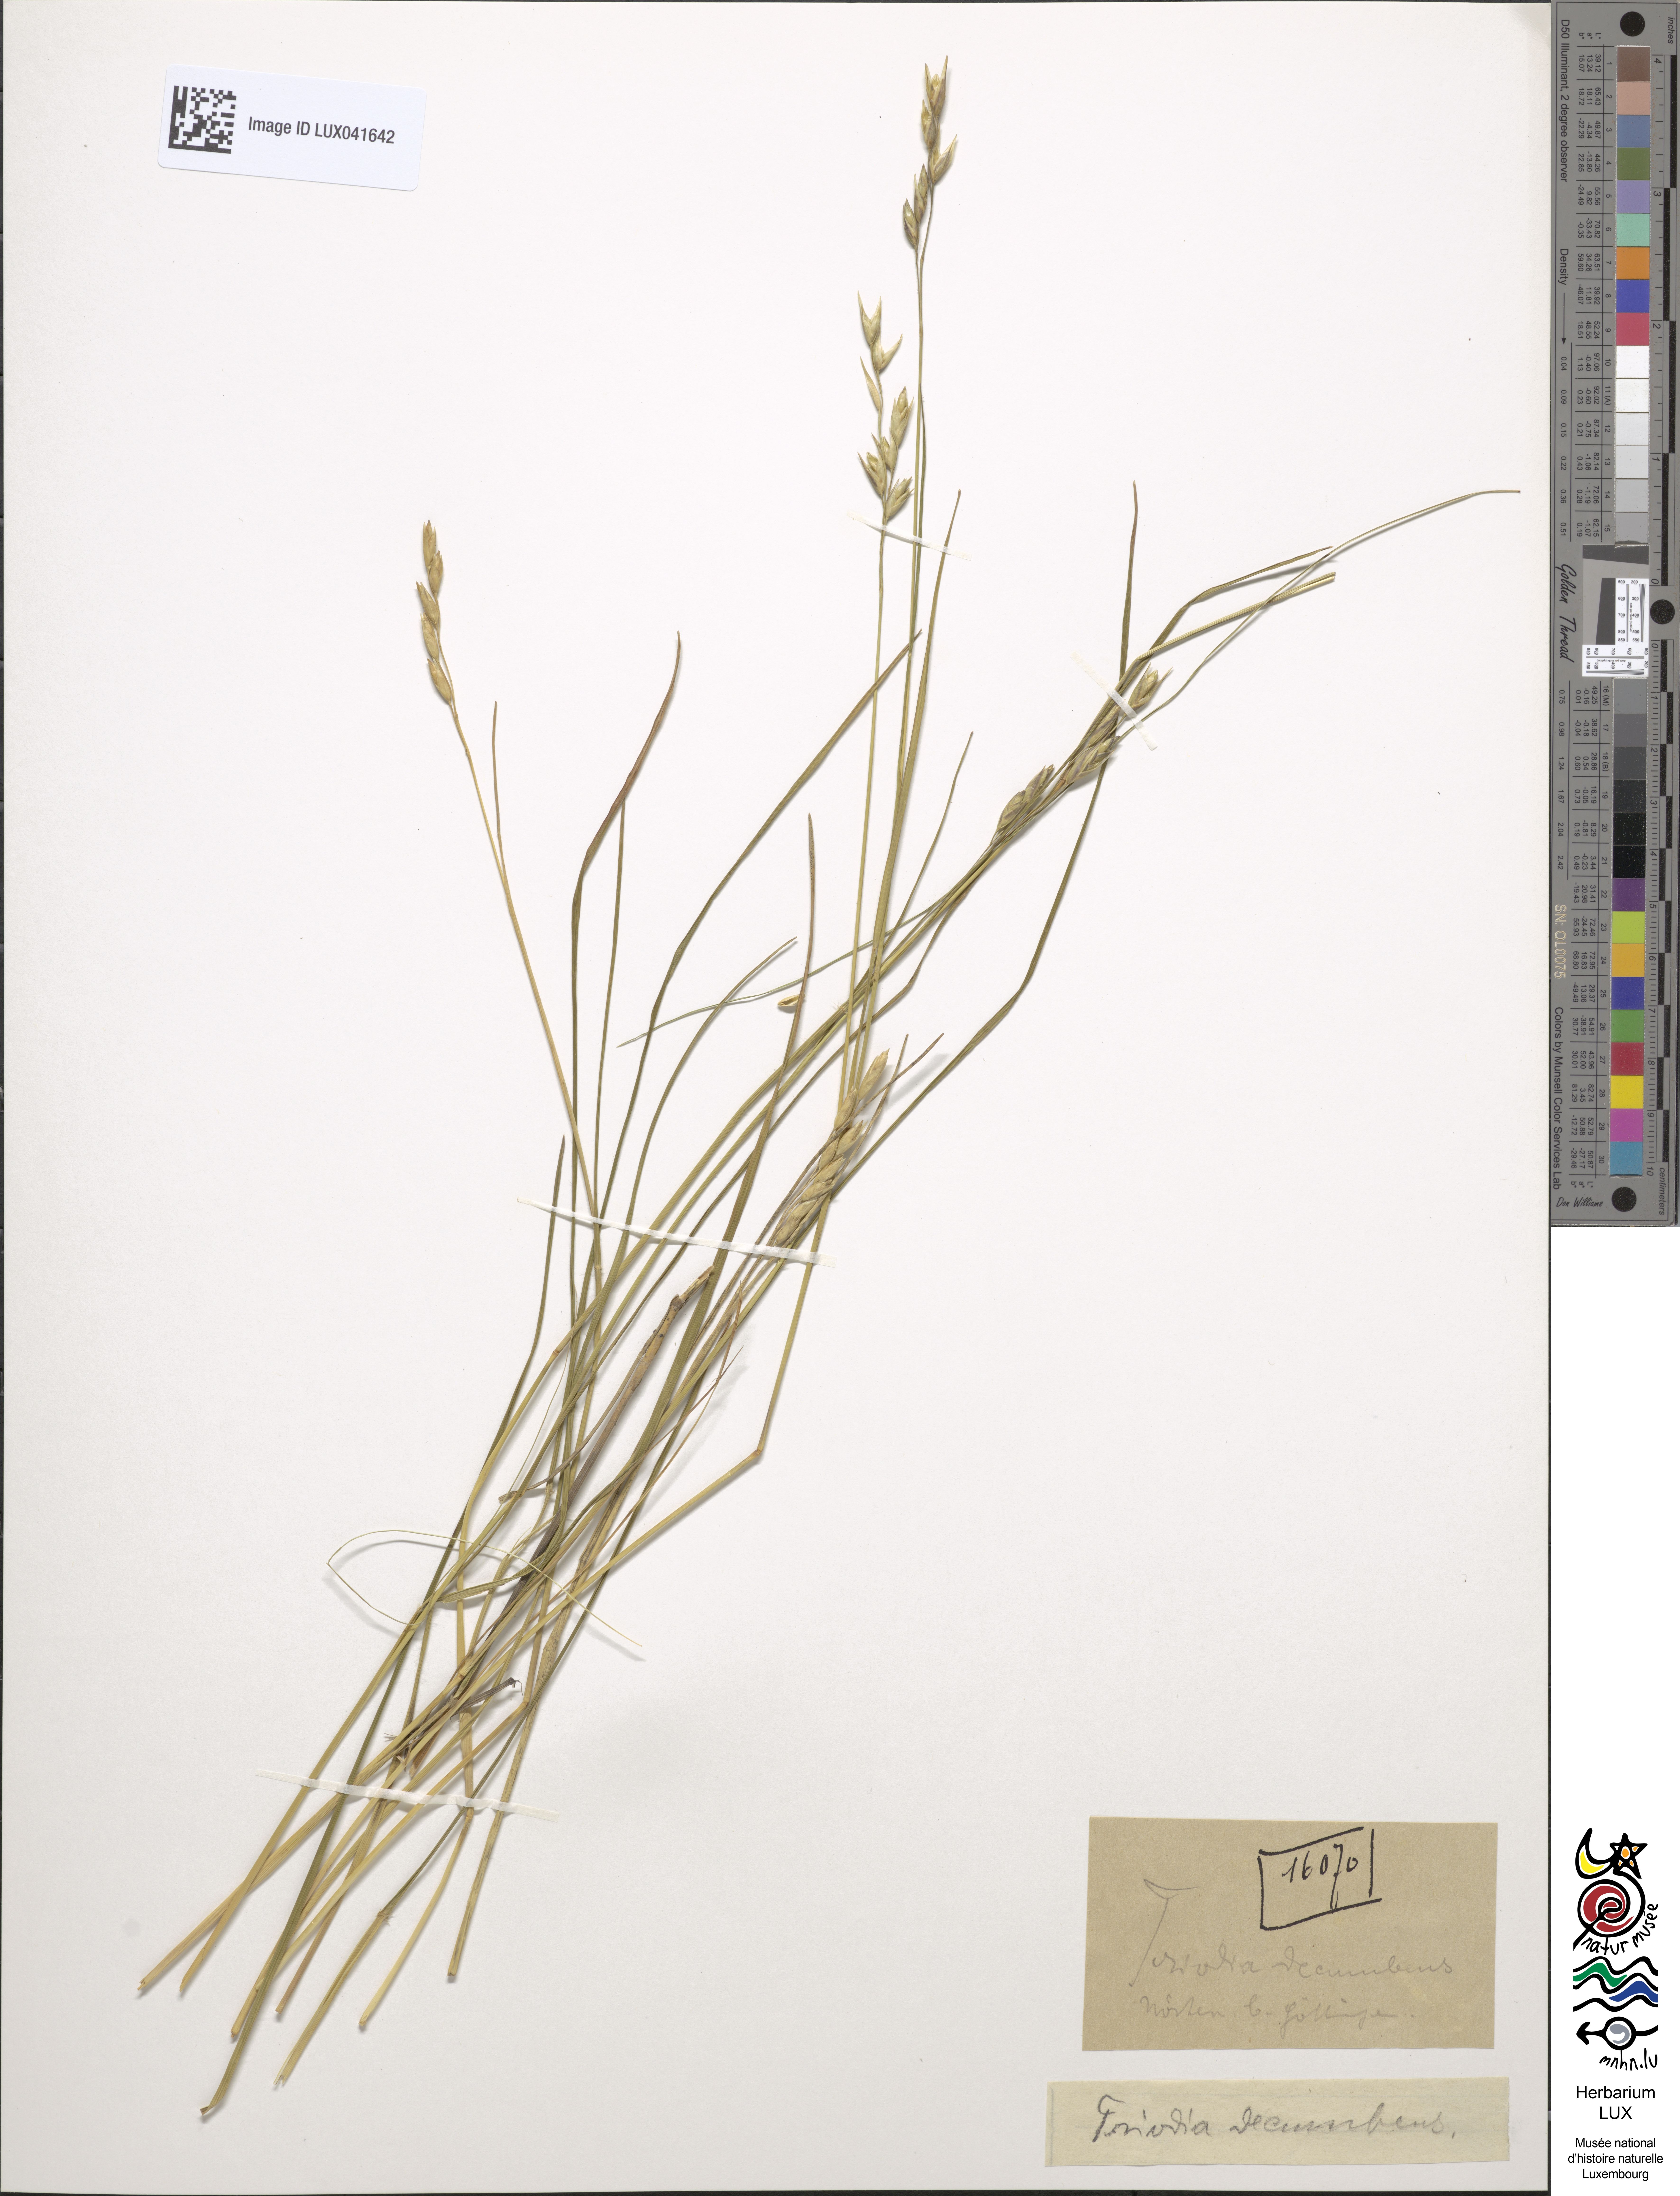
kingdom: Plantae
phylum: Tracheophyta
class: Liliopsida
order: Poales
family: Poaceae
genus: Danthonia
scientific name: Danthonia decumbens
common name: Common heathgrass
